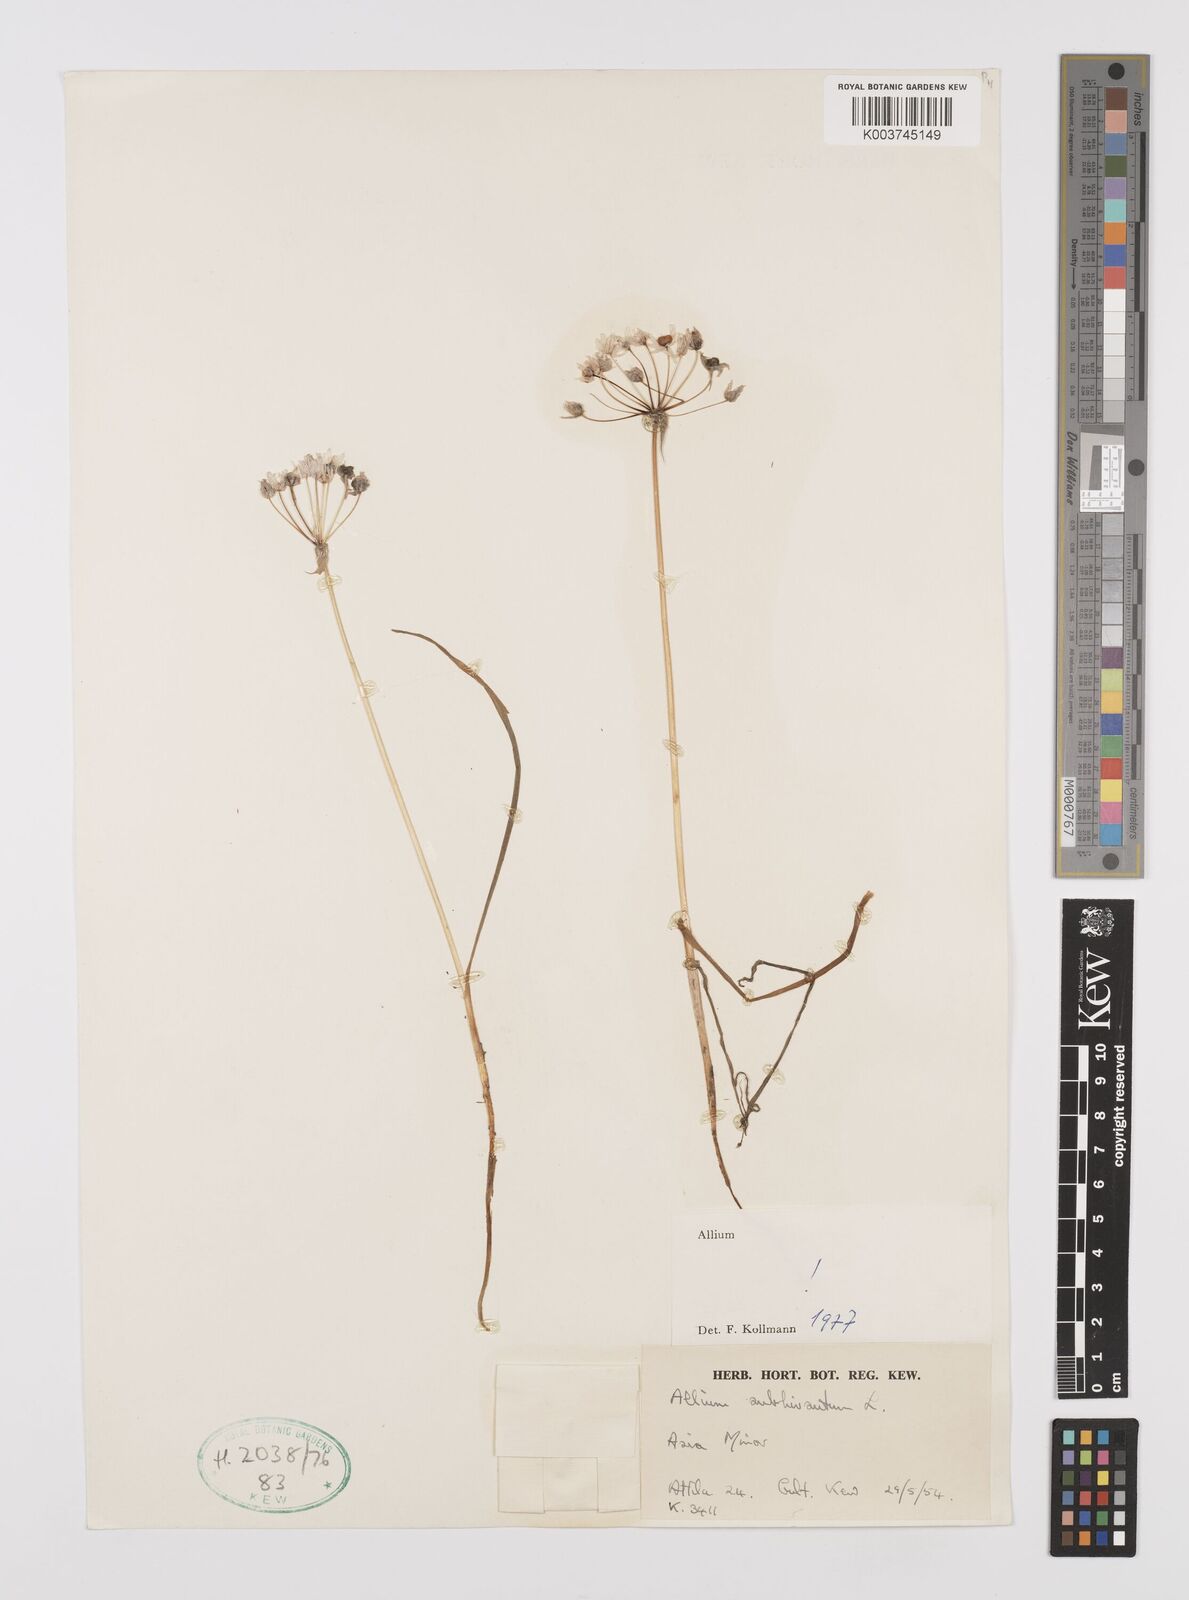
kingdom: Plantae
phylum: Tracheophyta
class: Liliopsida
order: Asparagales
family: Amaryllidaceae
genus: Allium
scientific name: Allium subhirsutum
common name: Hairy garlic
